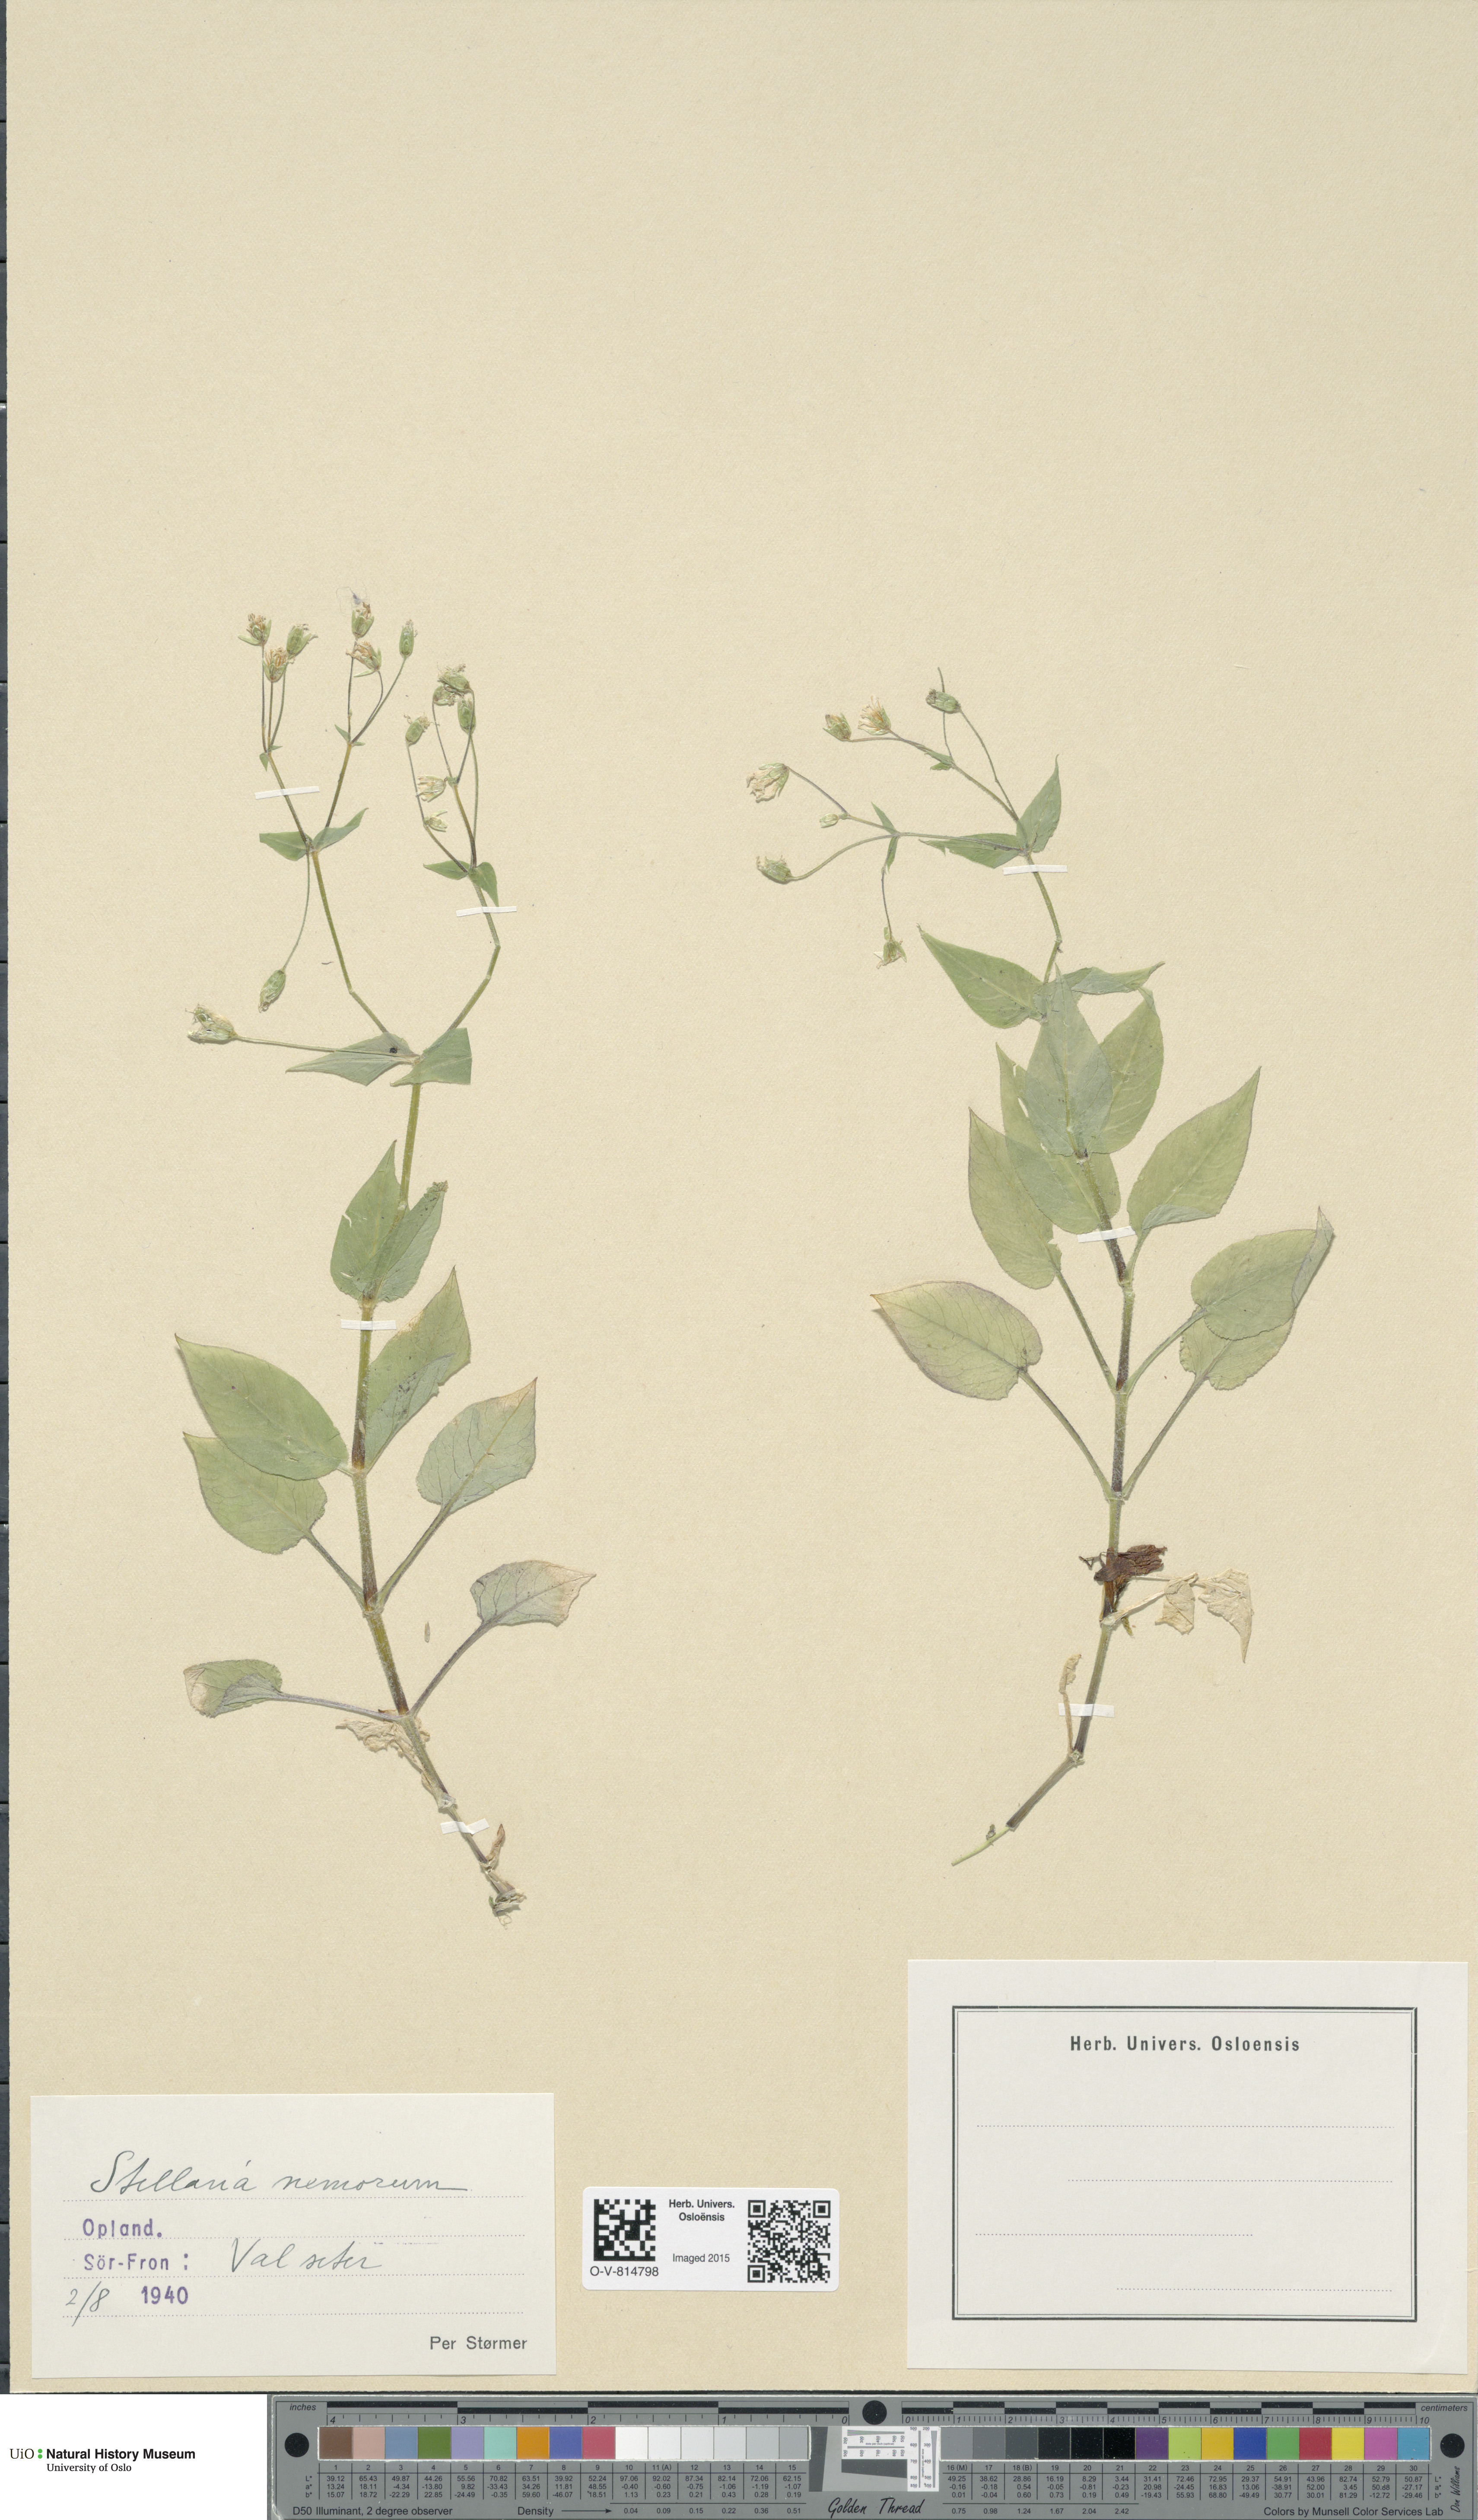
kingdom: Plantae
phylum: Tracheophyta
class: Magnoliopsida
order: Caryophyllales
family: Caryophyllaceae
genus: Stellaria
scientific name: Stellaria nemorum
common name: Wood stitchwort
